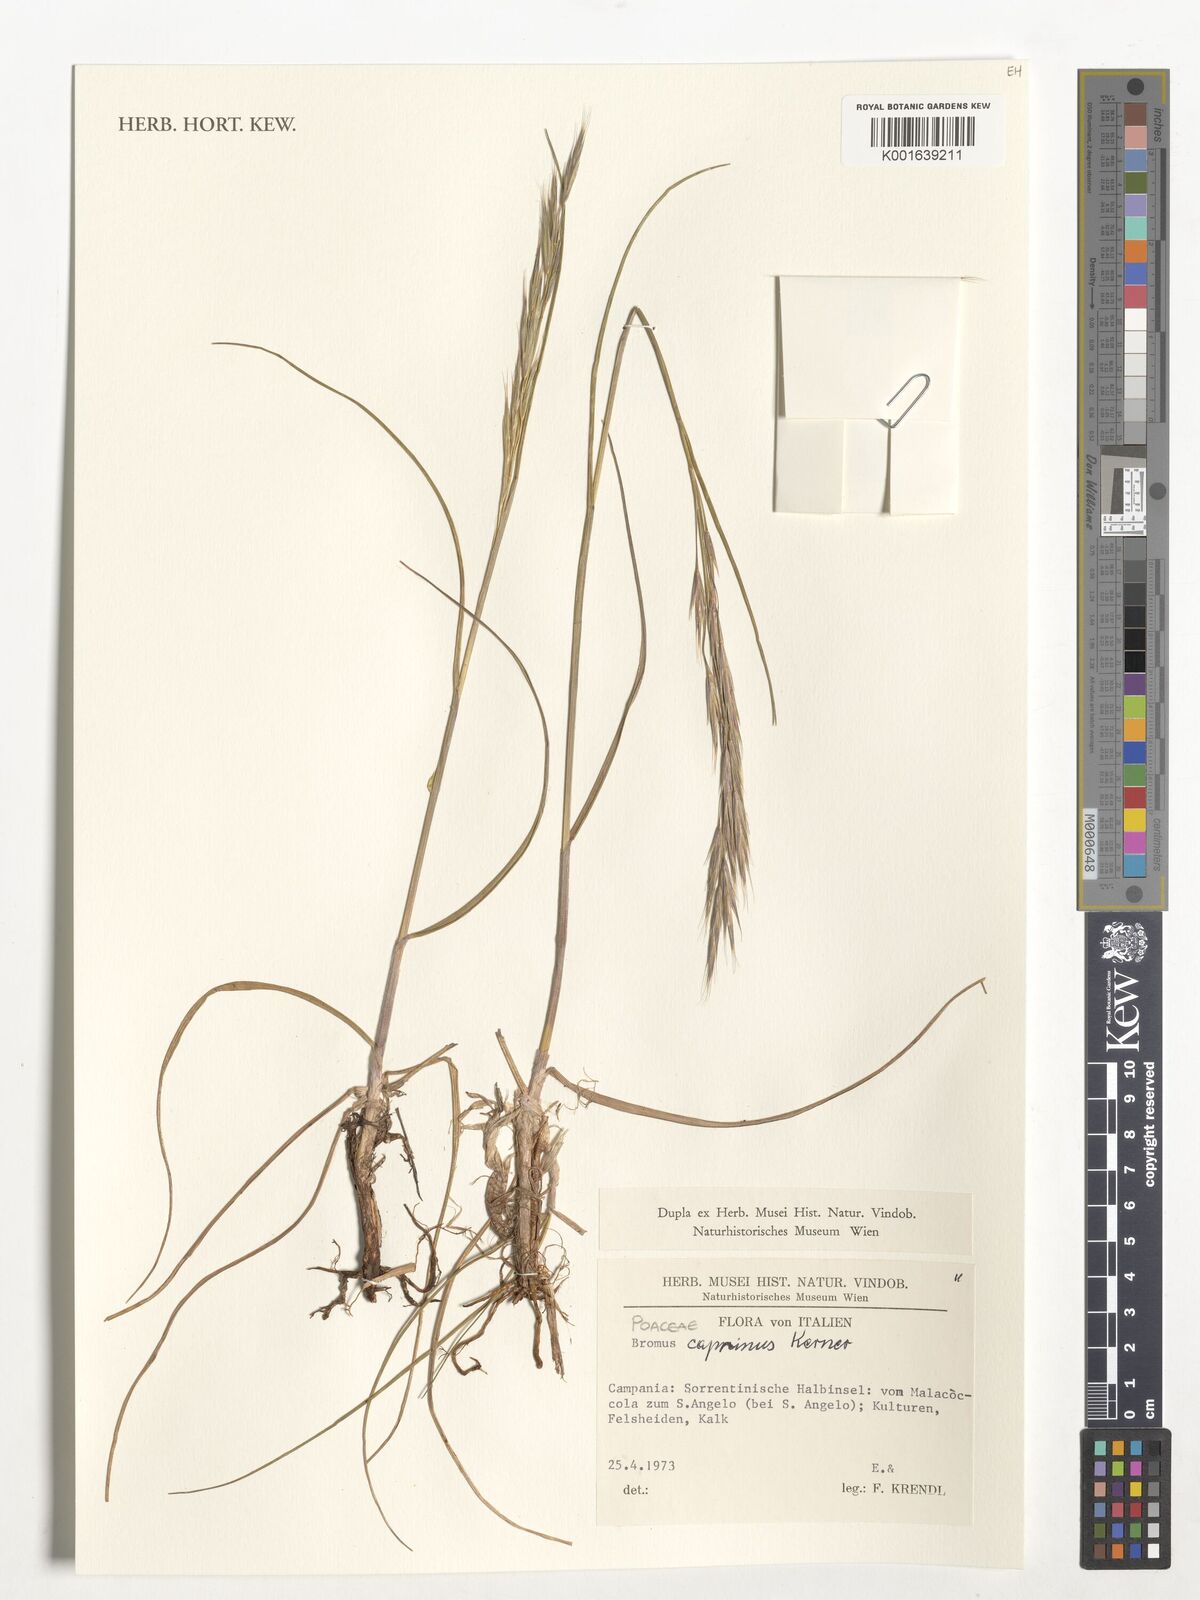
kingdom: Plantae
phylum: Tracheophyta
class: Liliopsida
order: Poales
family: Poaceae
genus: Bromus
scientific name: Bromus erectus
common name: Erect brome
